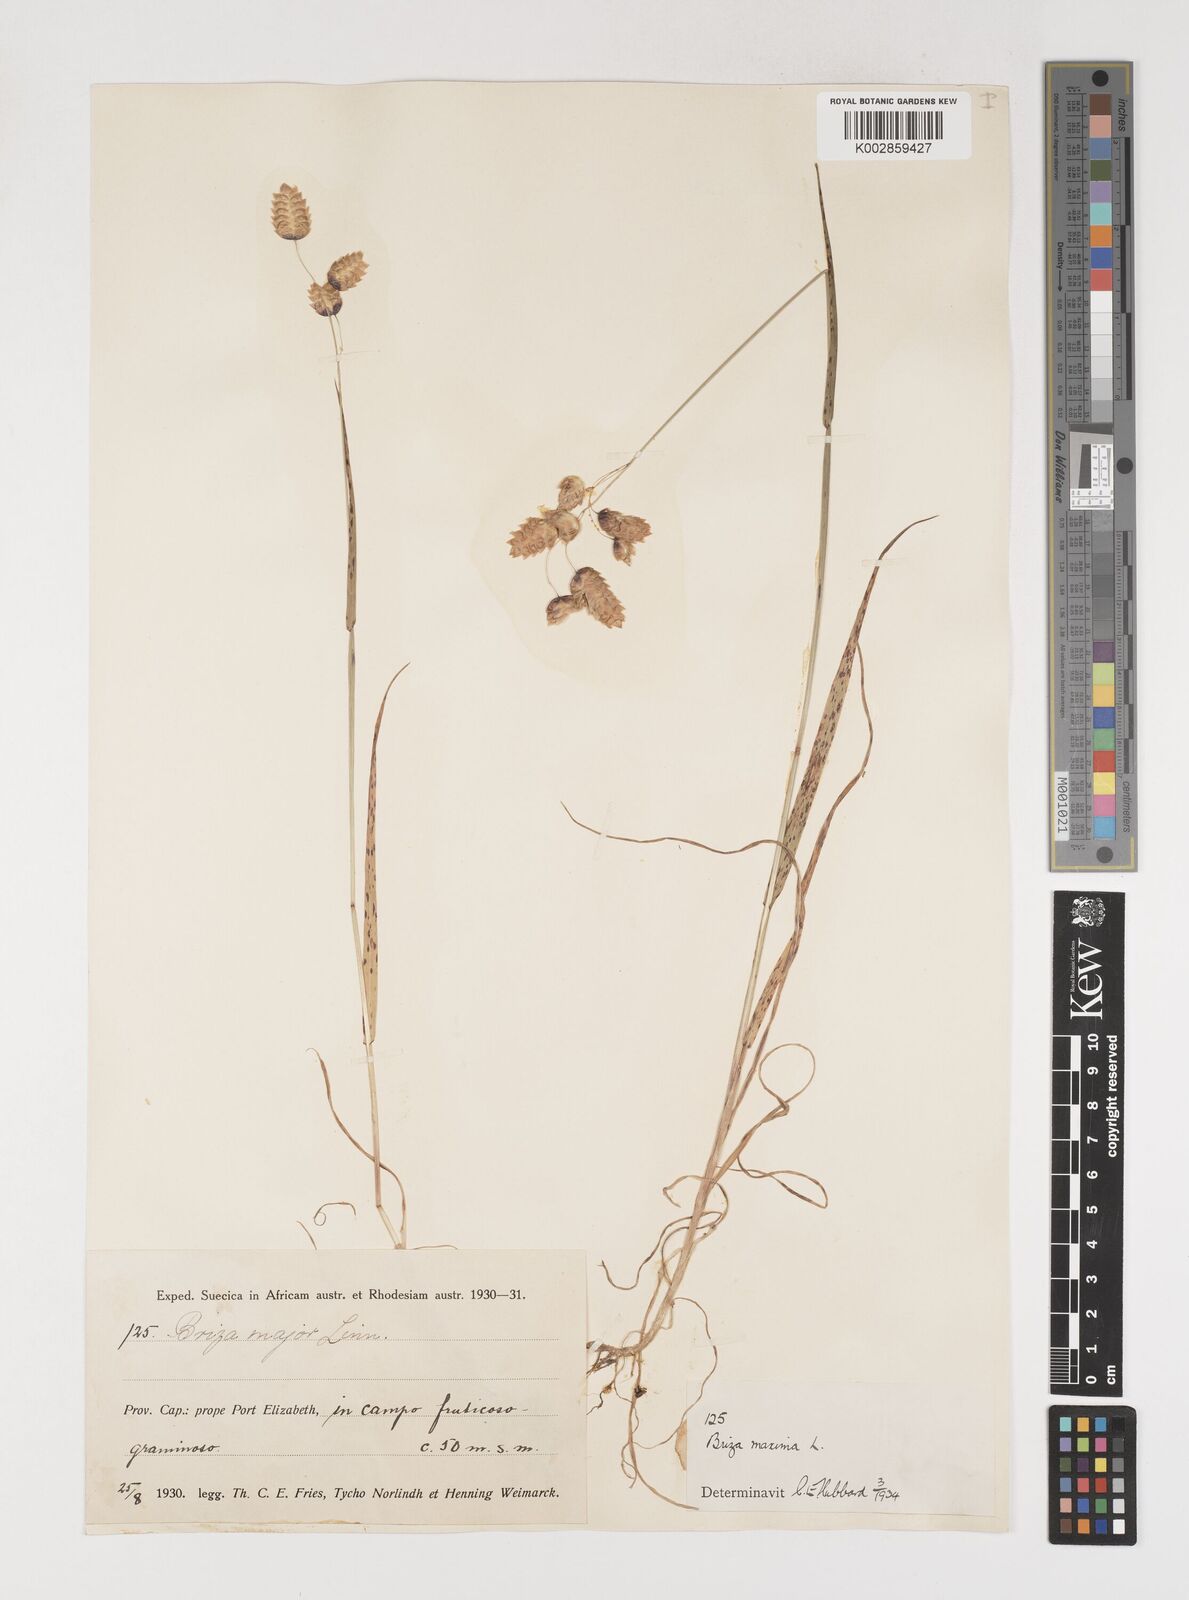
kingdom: Plantae
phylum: Tracheophyta
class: Liliopsida
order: Poales
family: Poaceae
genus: Briza
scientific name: Briza maxima
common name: Big quakinggrass
